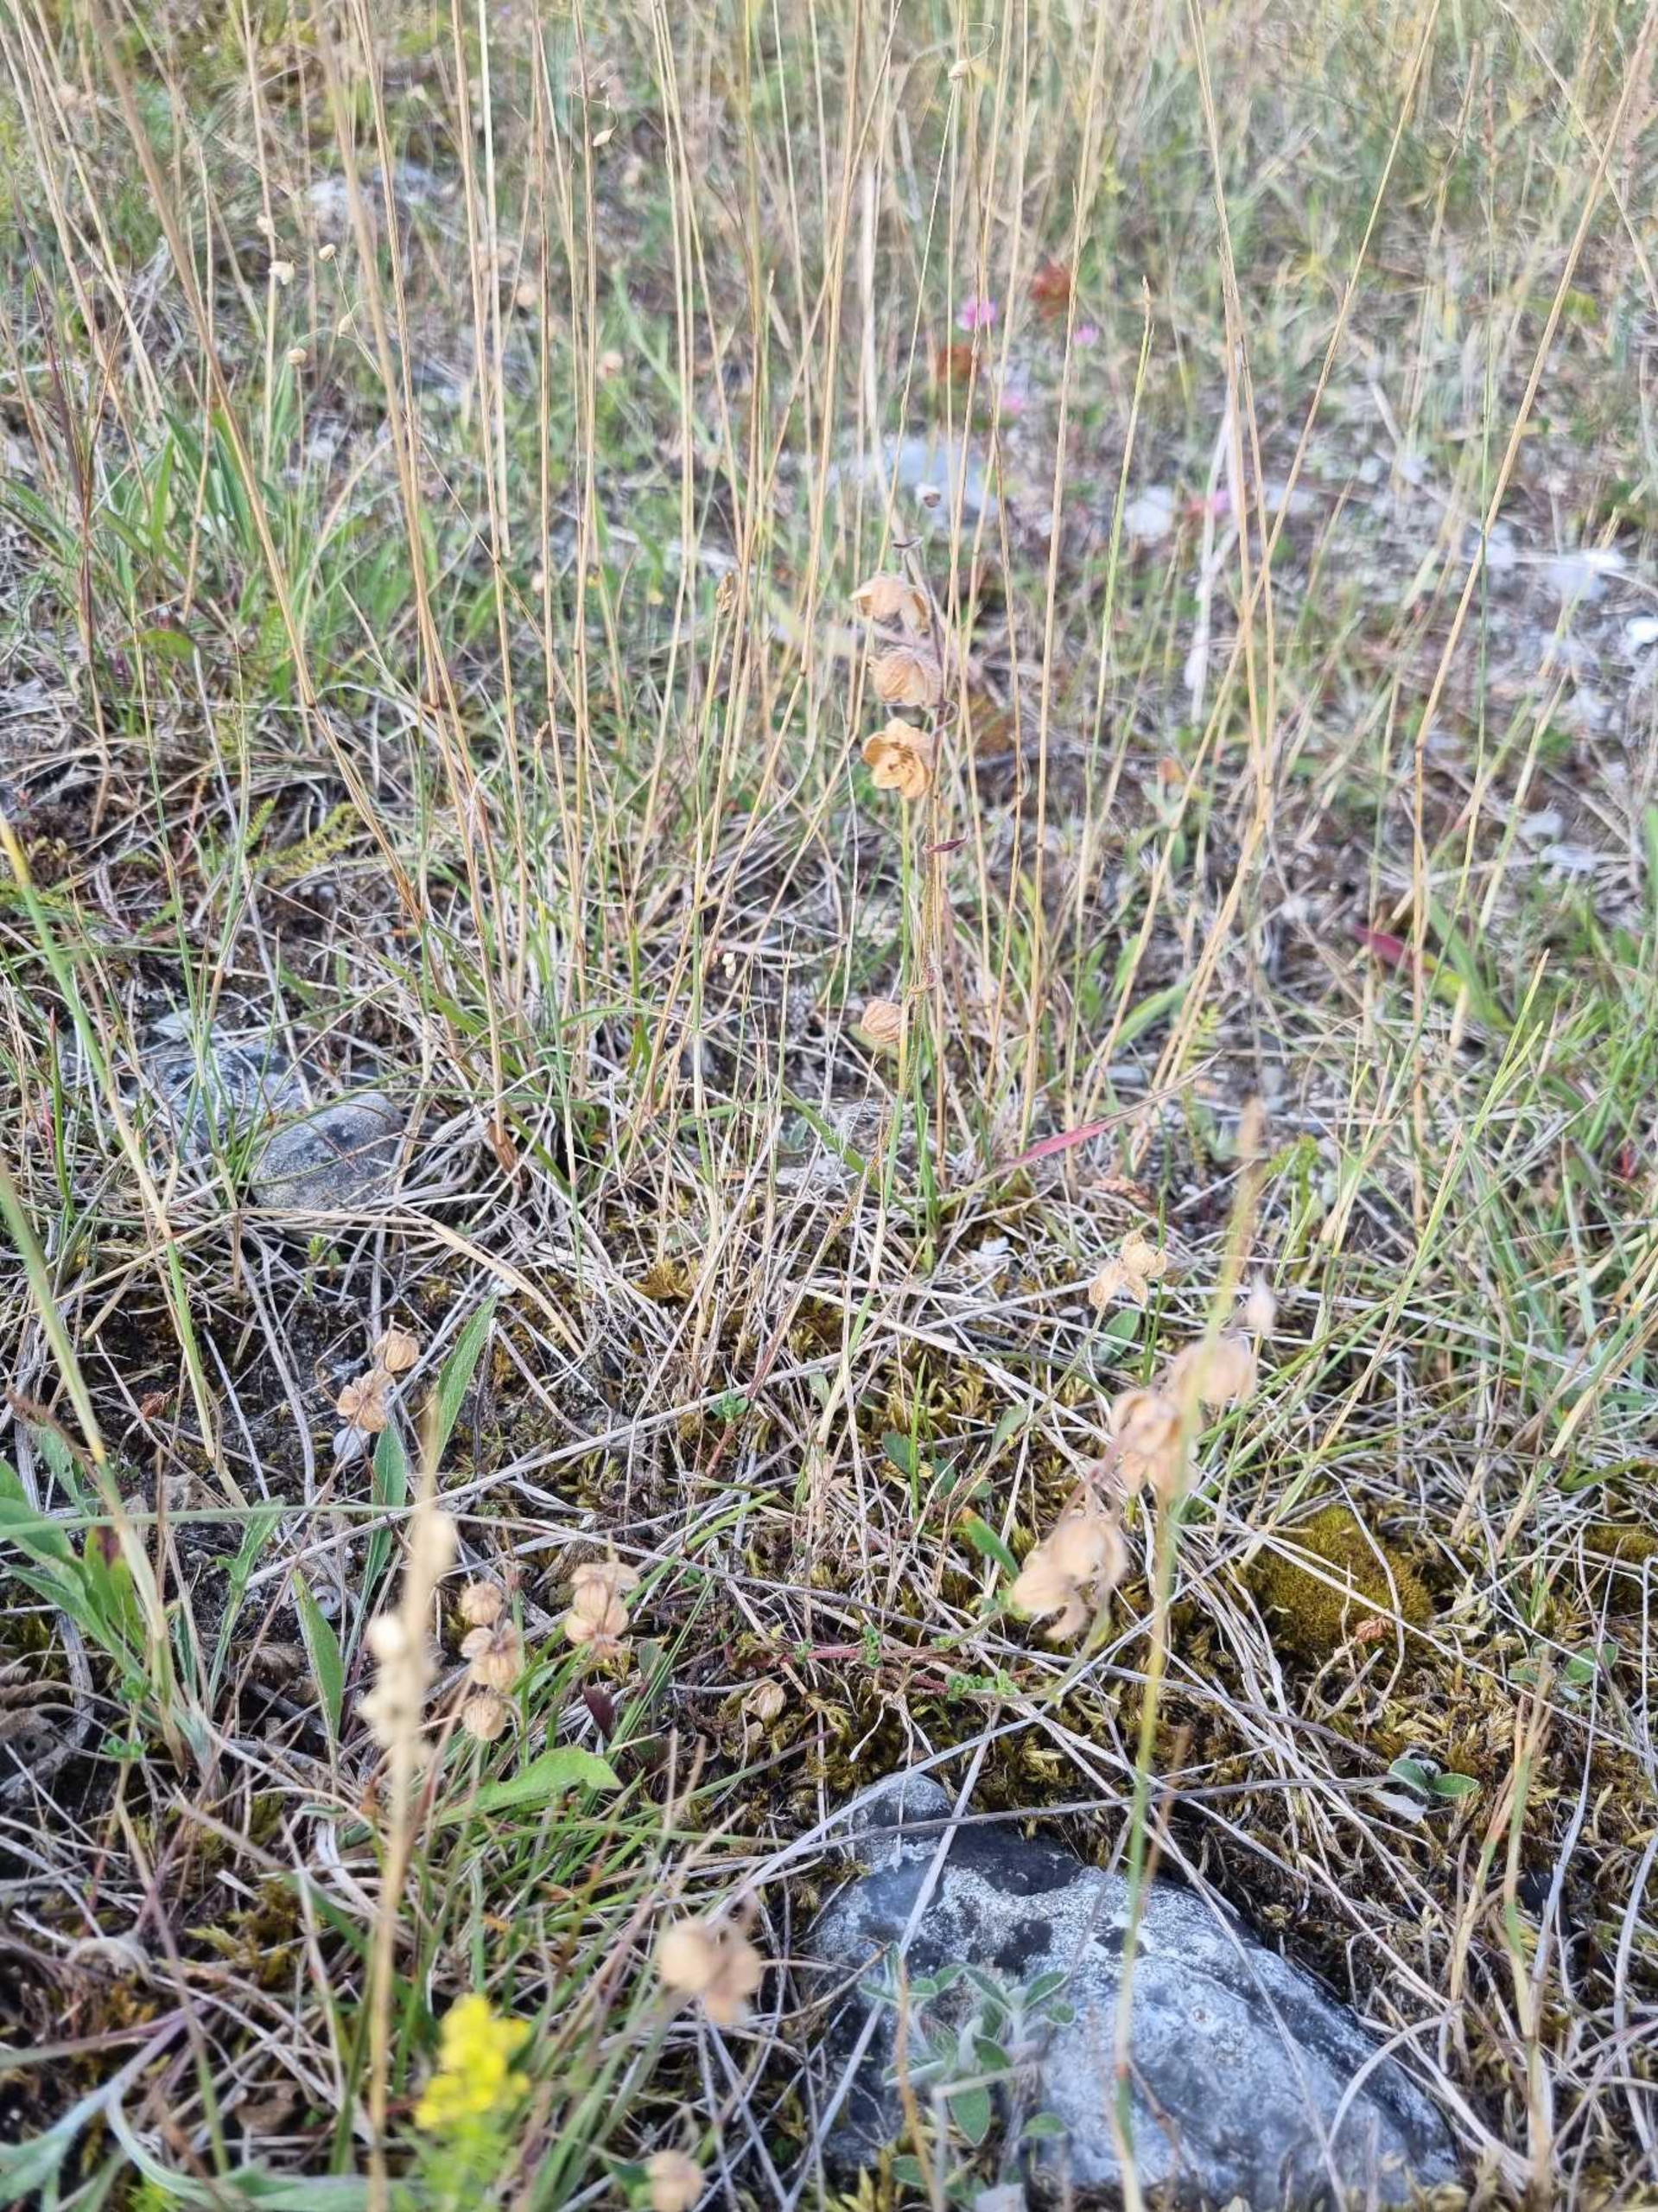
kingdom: Plantae
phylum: Tracheophyta
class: Magnoliopsida
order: Malvales
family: Cistaceae
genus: Helianthemum
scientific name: Helianthemum nummularium
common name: Soløje
